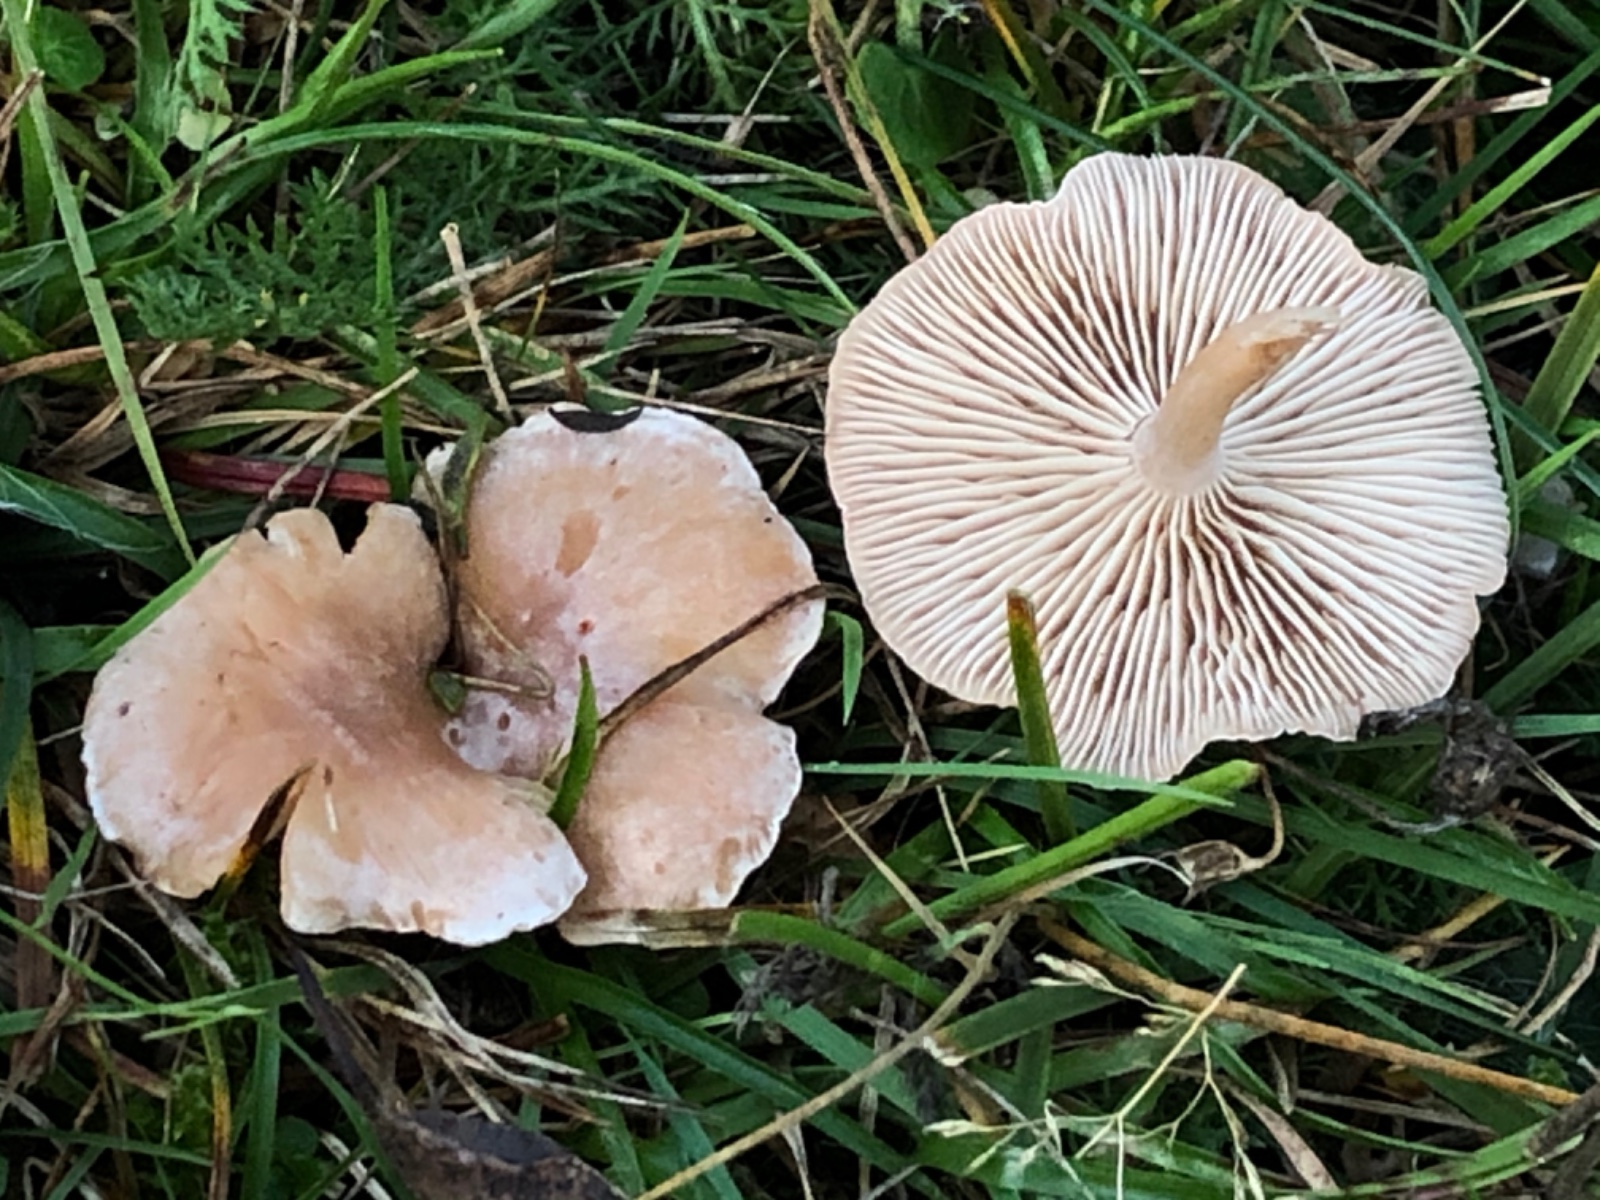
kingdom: Fungi
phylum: Basidiomycota
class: Agaricomycetes
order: Agaricales
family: Tricholomataceae
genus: Clitocybe
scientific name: Clitocybe
